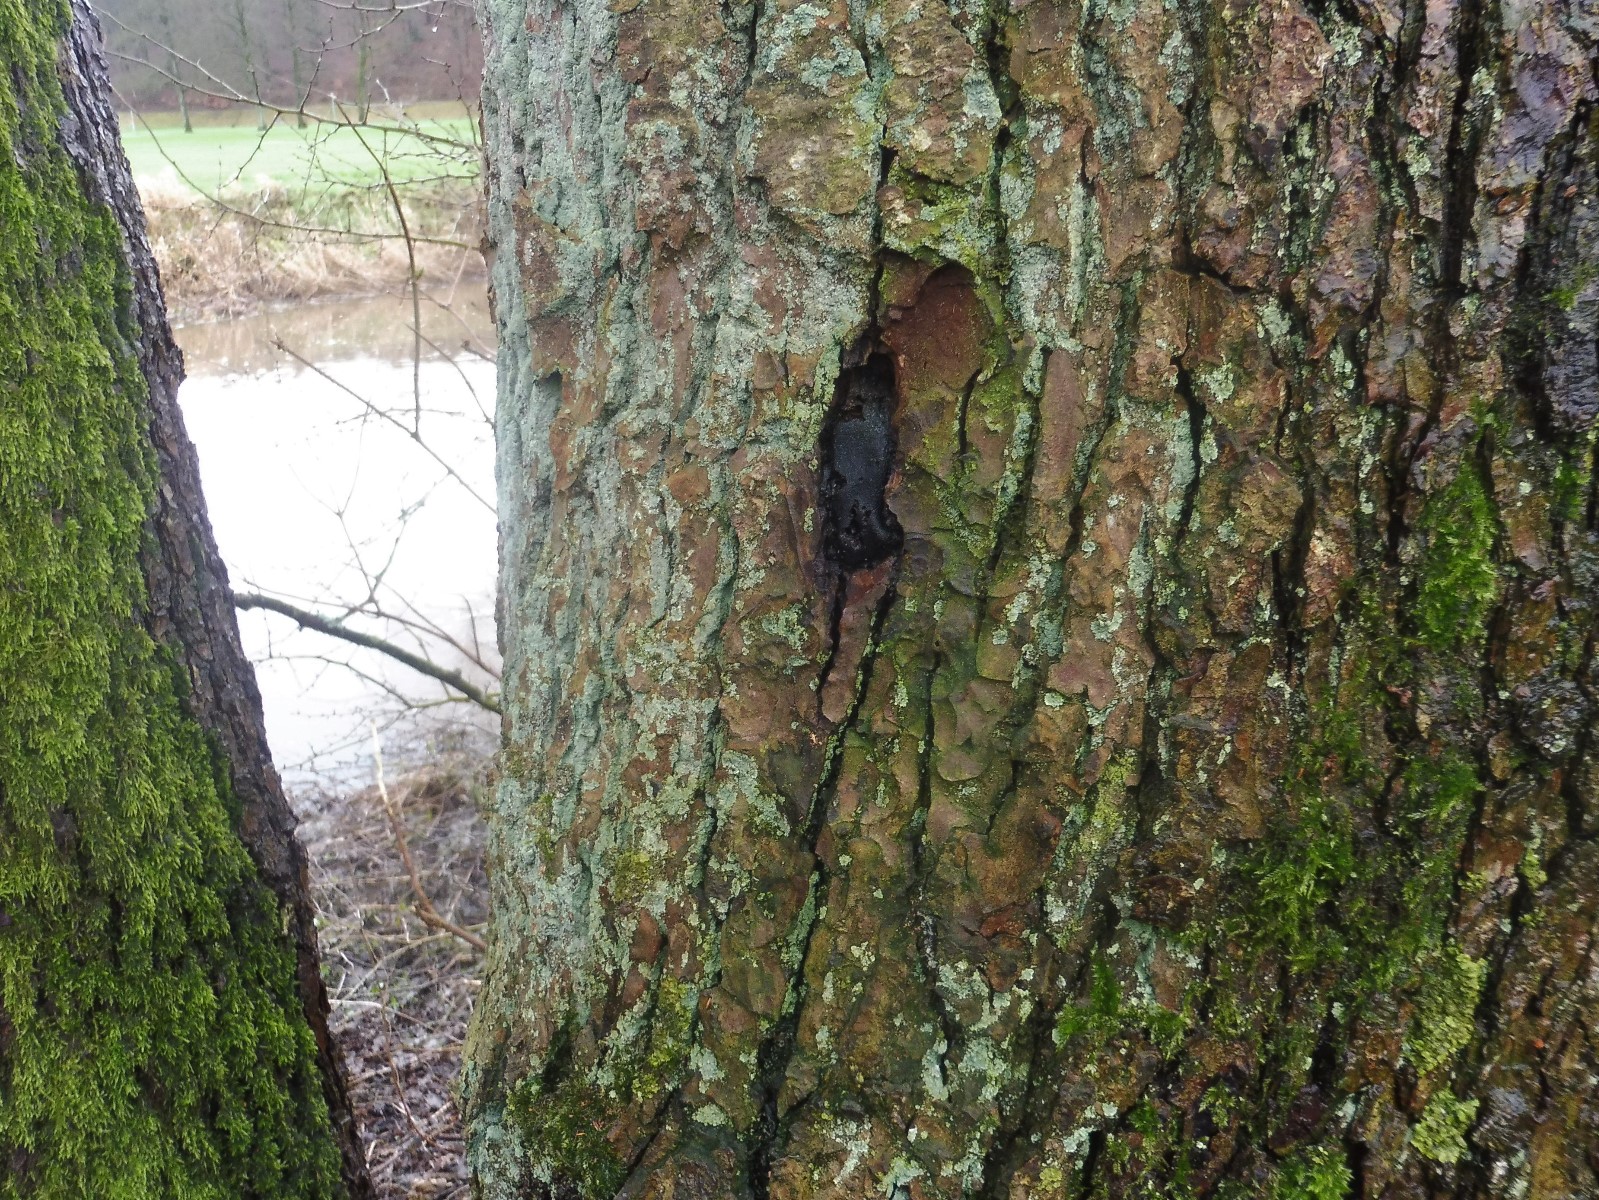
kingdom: Fungi
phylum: Ascomycota
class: Sordariomycetes
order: Boliniales
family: Boliniaceae
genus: Camarops
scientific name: Camarops polysperma
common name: elle-kulsnegl
